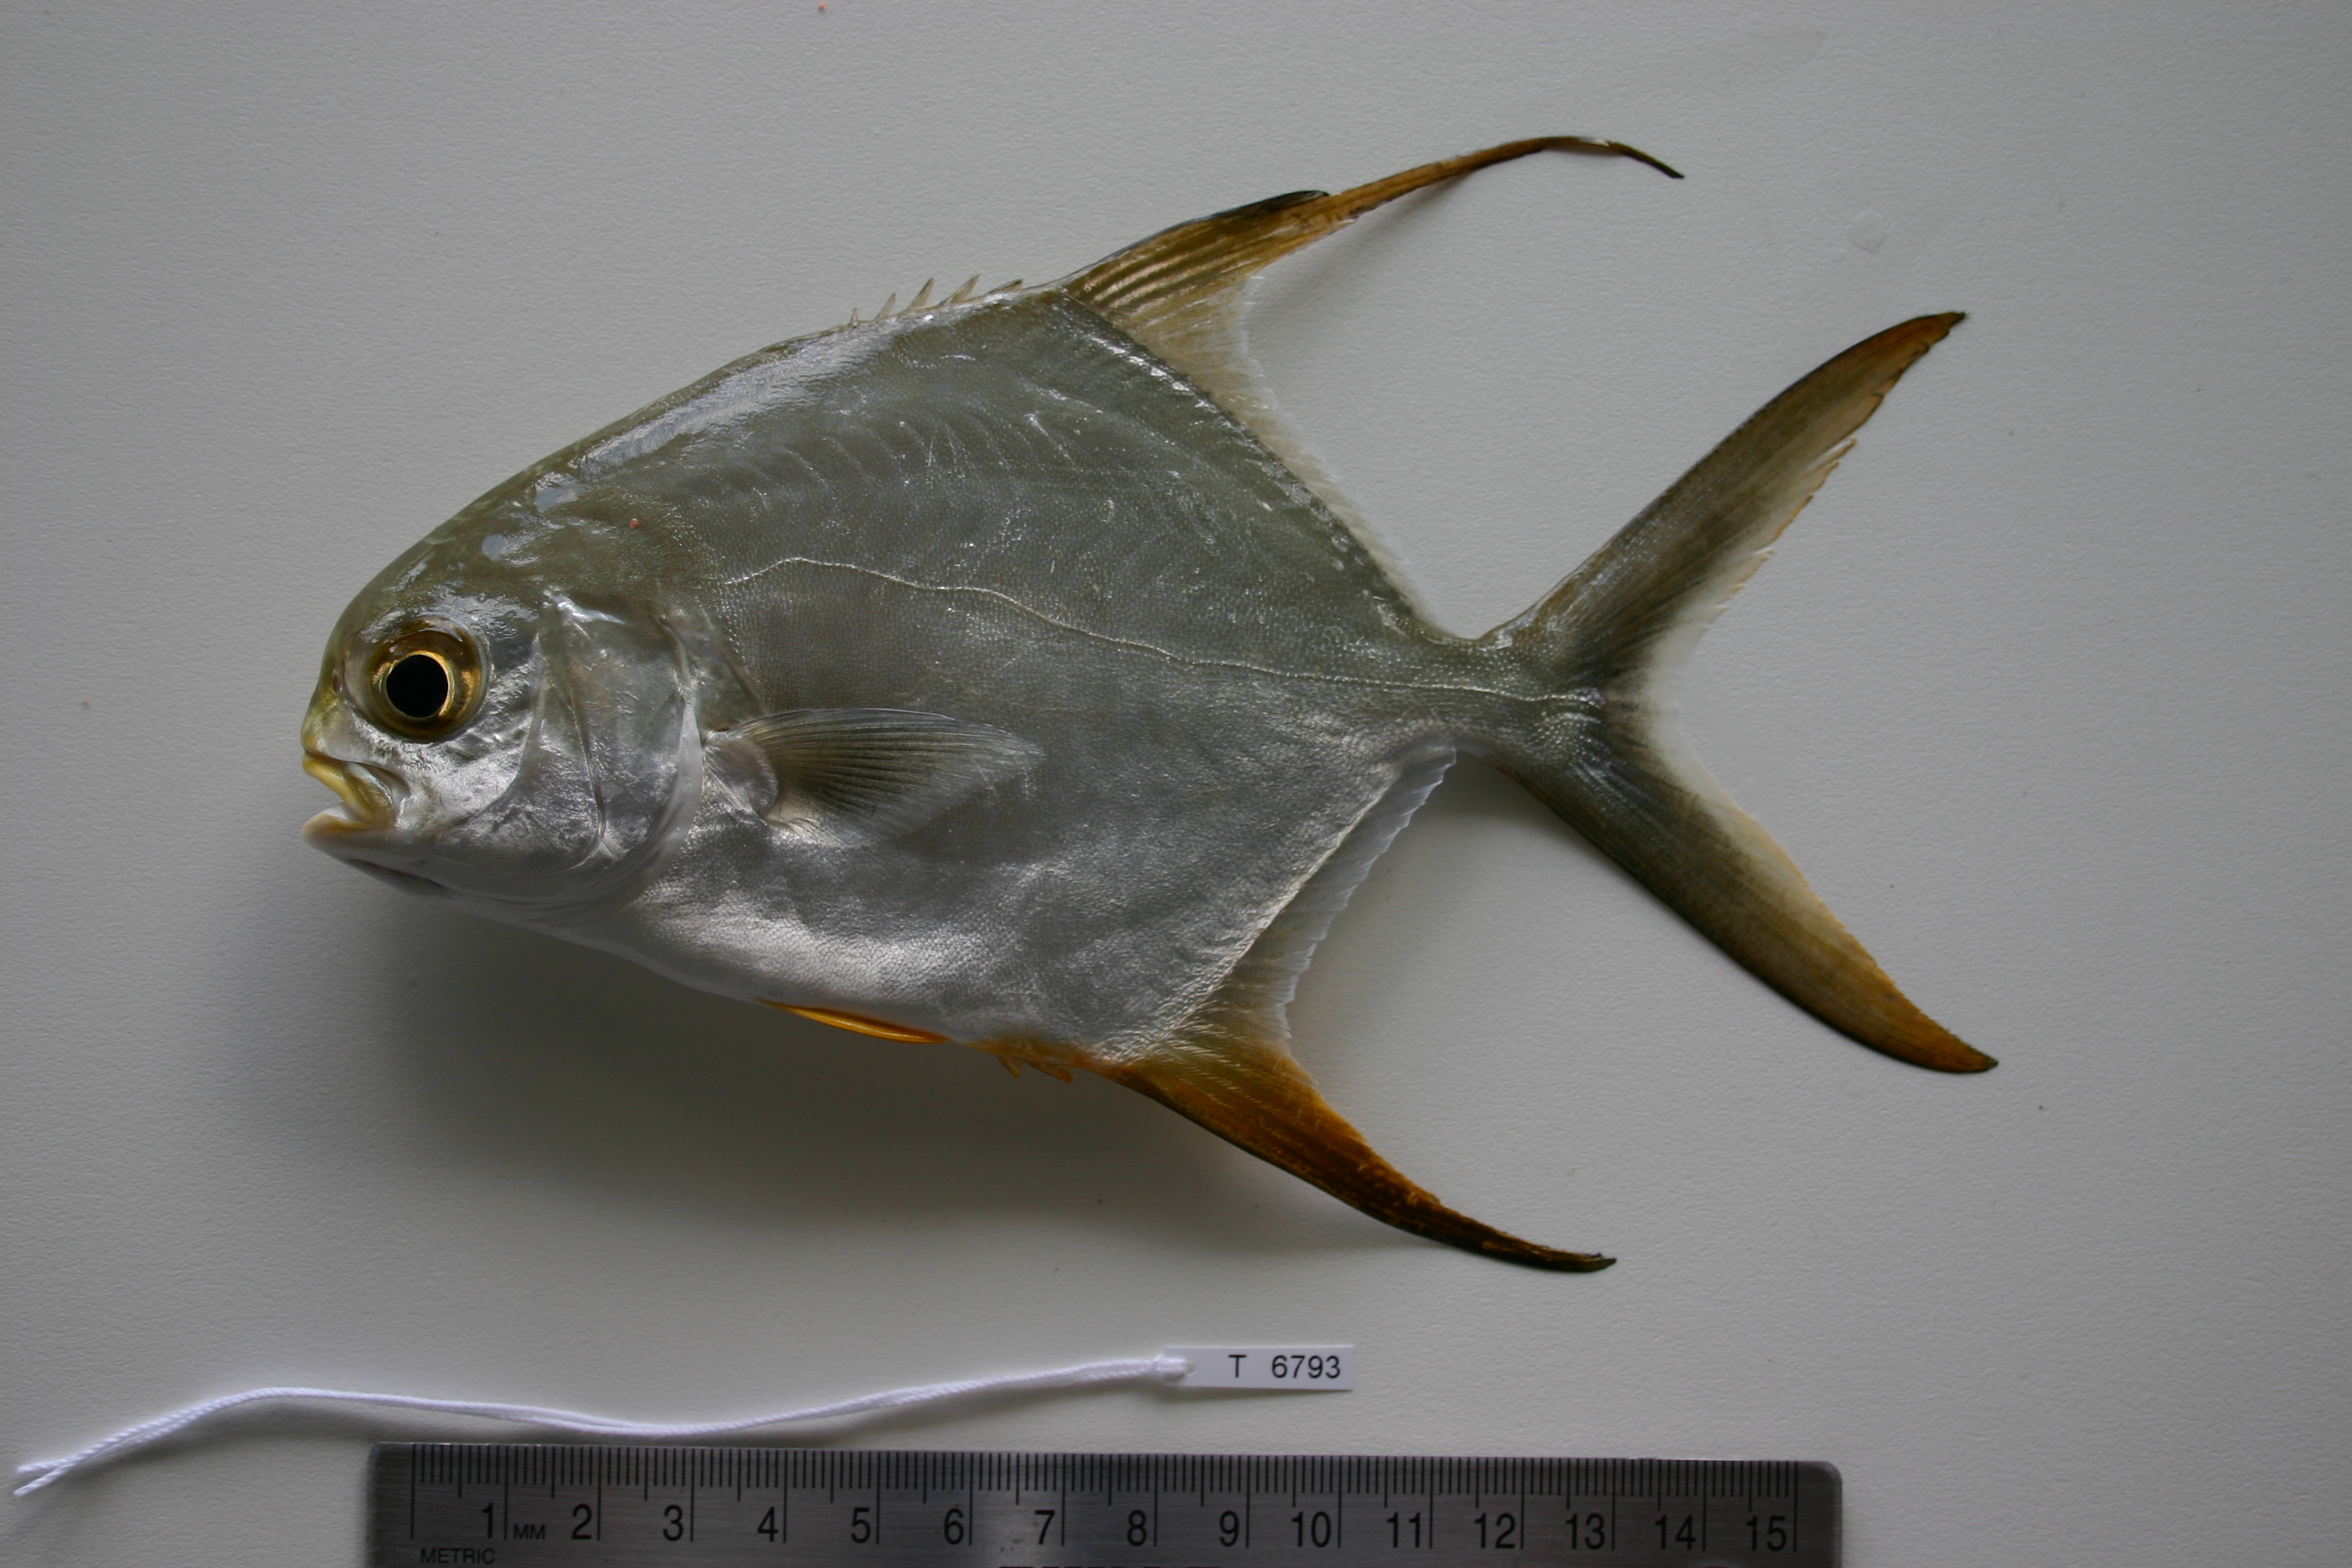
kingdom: Animalia
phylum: Chordata
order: Perciformes
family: Carangidae
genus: Trachinotus
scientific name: Trachinotus blochii
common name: Snubnose pompano
